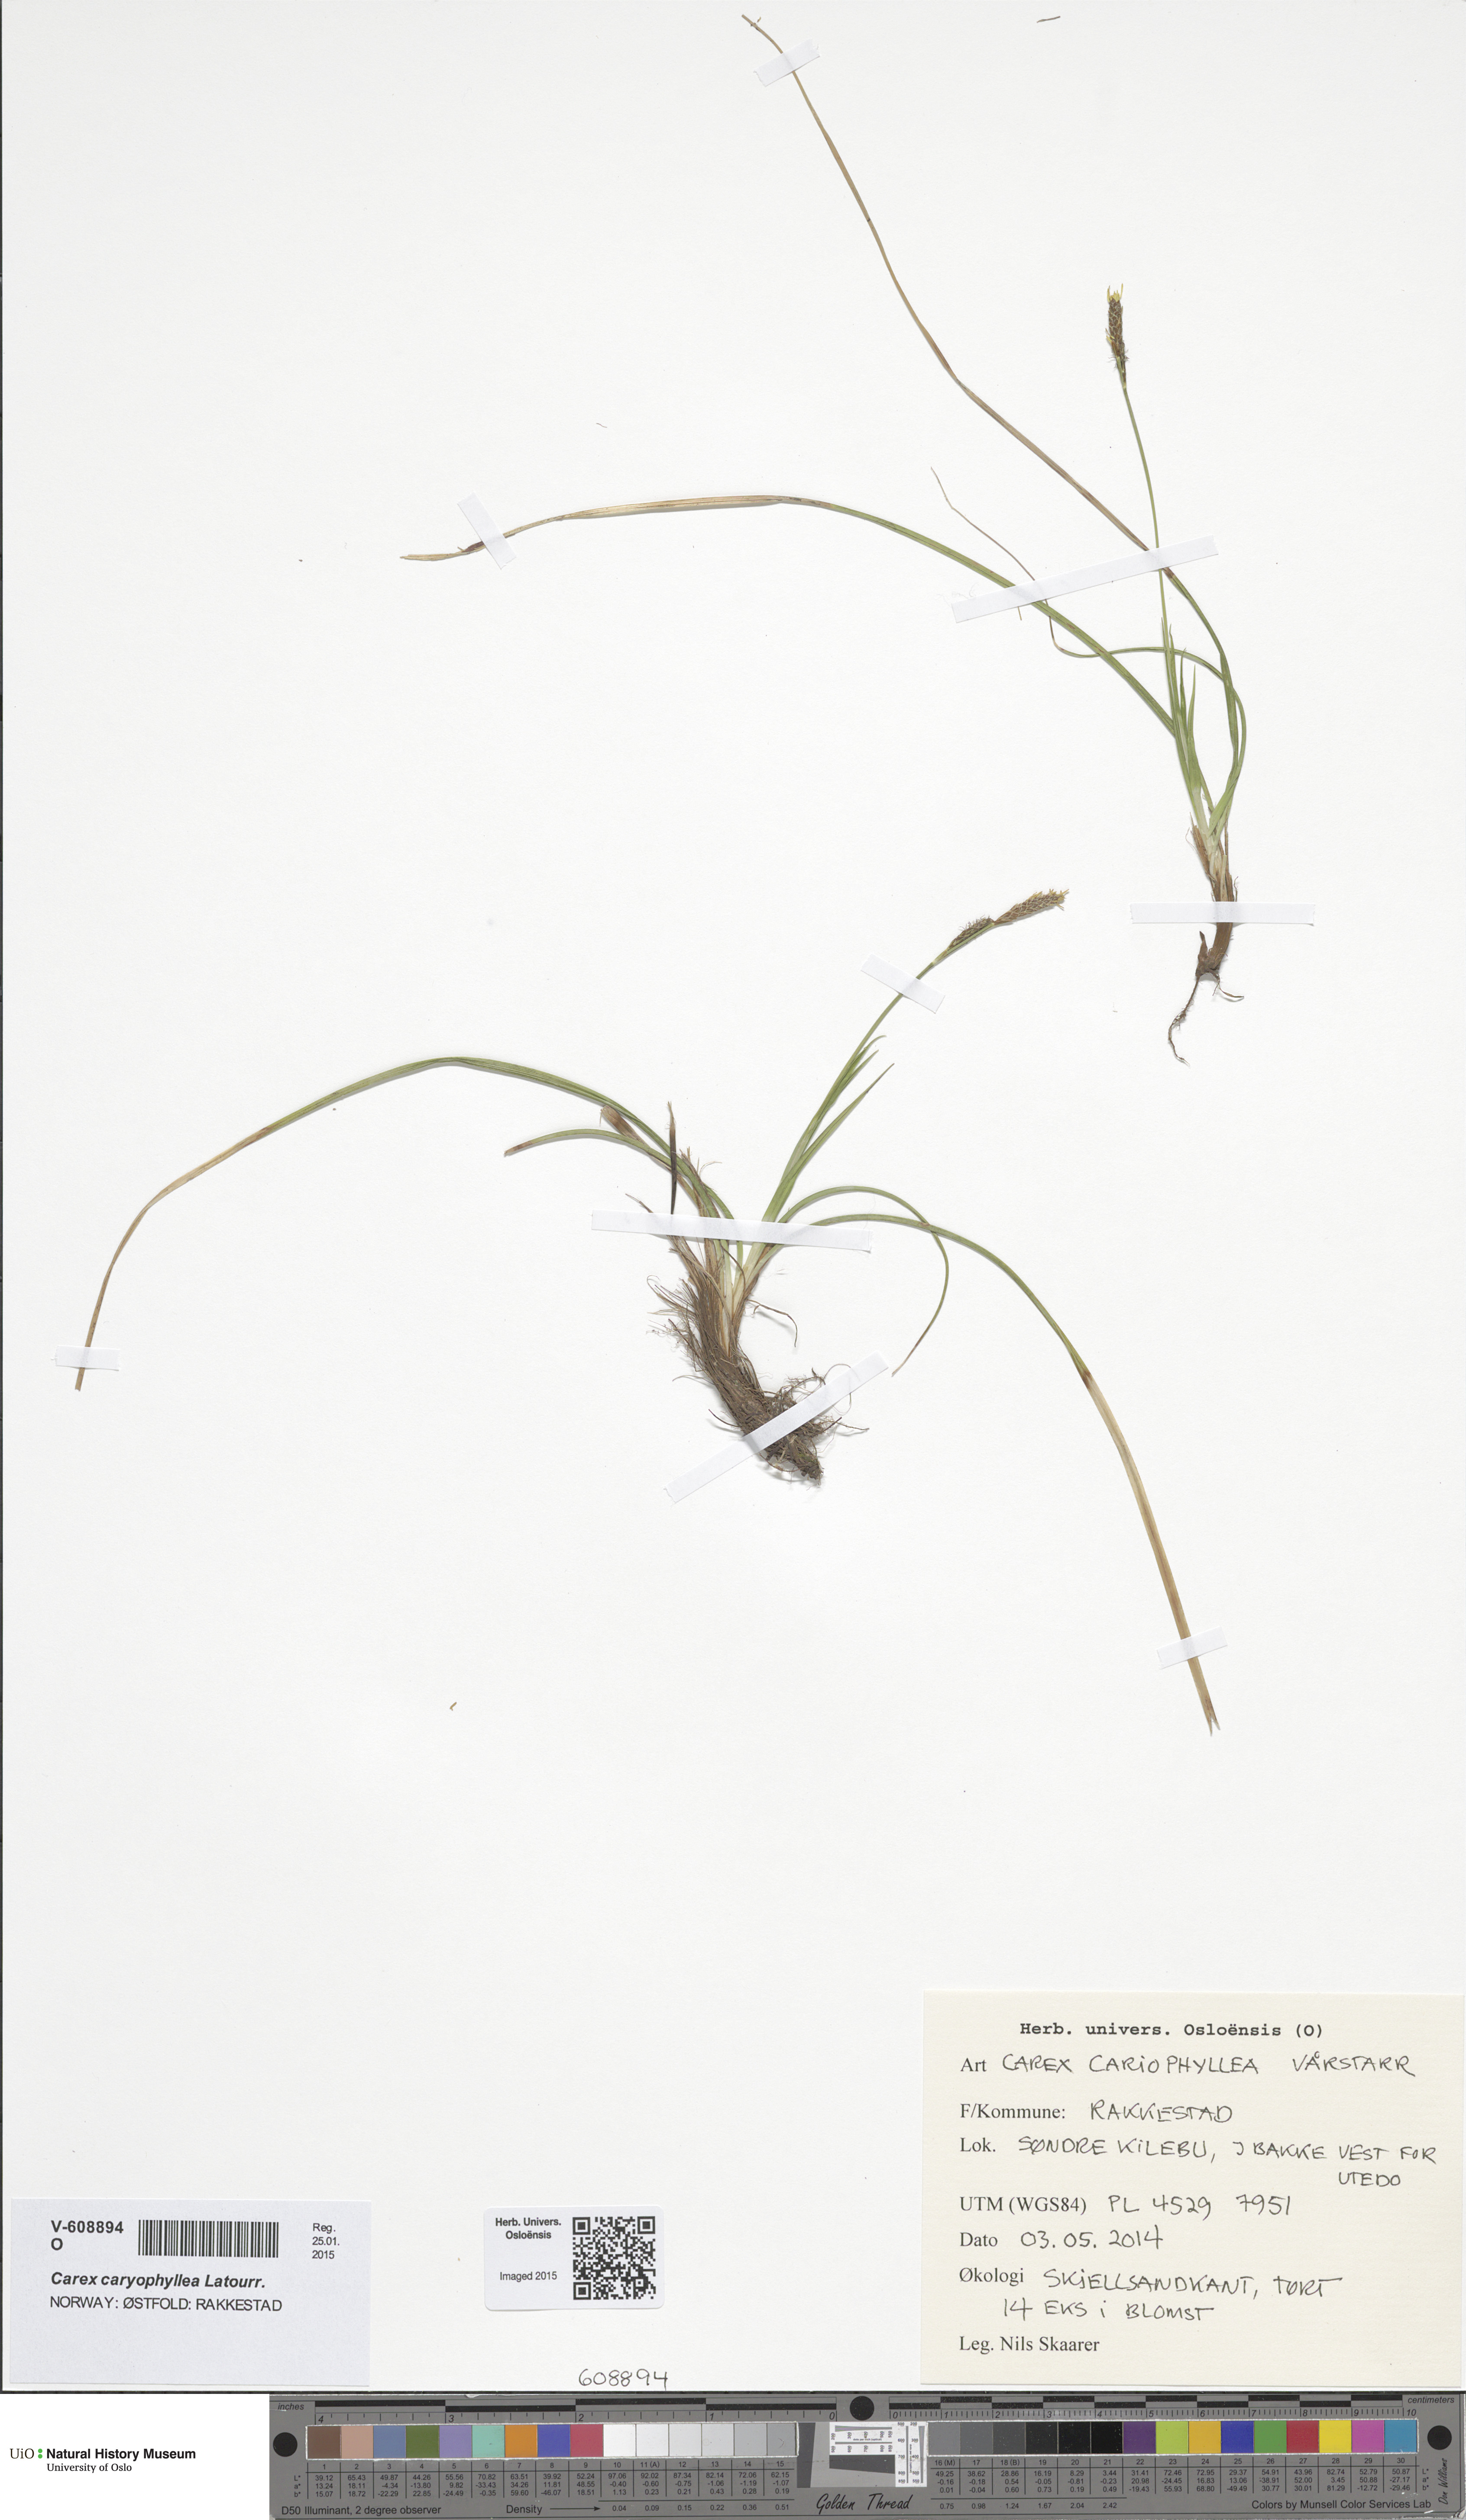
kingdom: Plantae
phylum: Tracheophyta
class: Liliopsida
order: Poales
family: Cyperaceae
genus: Carex
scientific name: Carex caryophyllea
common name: Spring sedge
